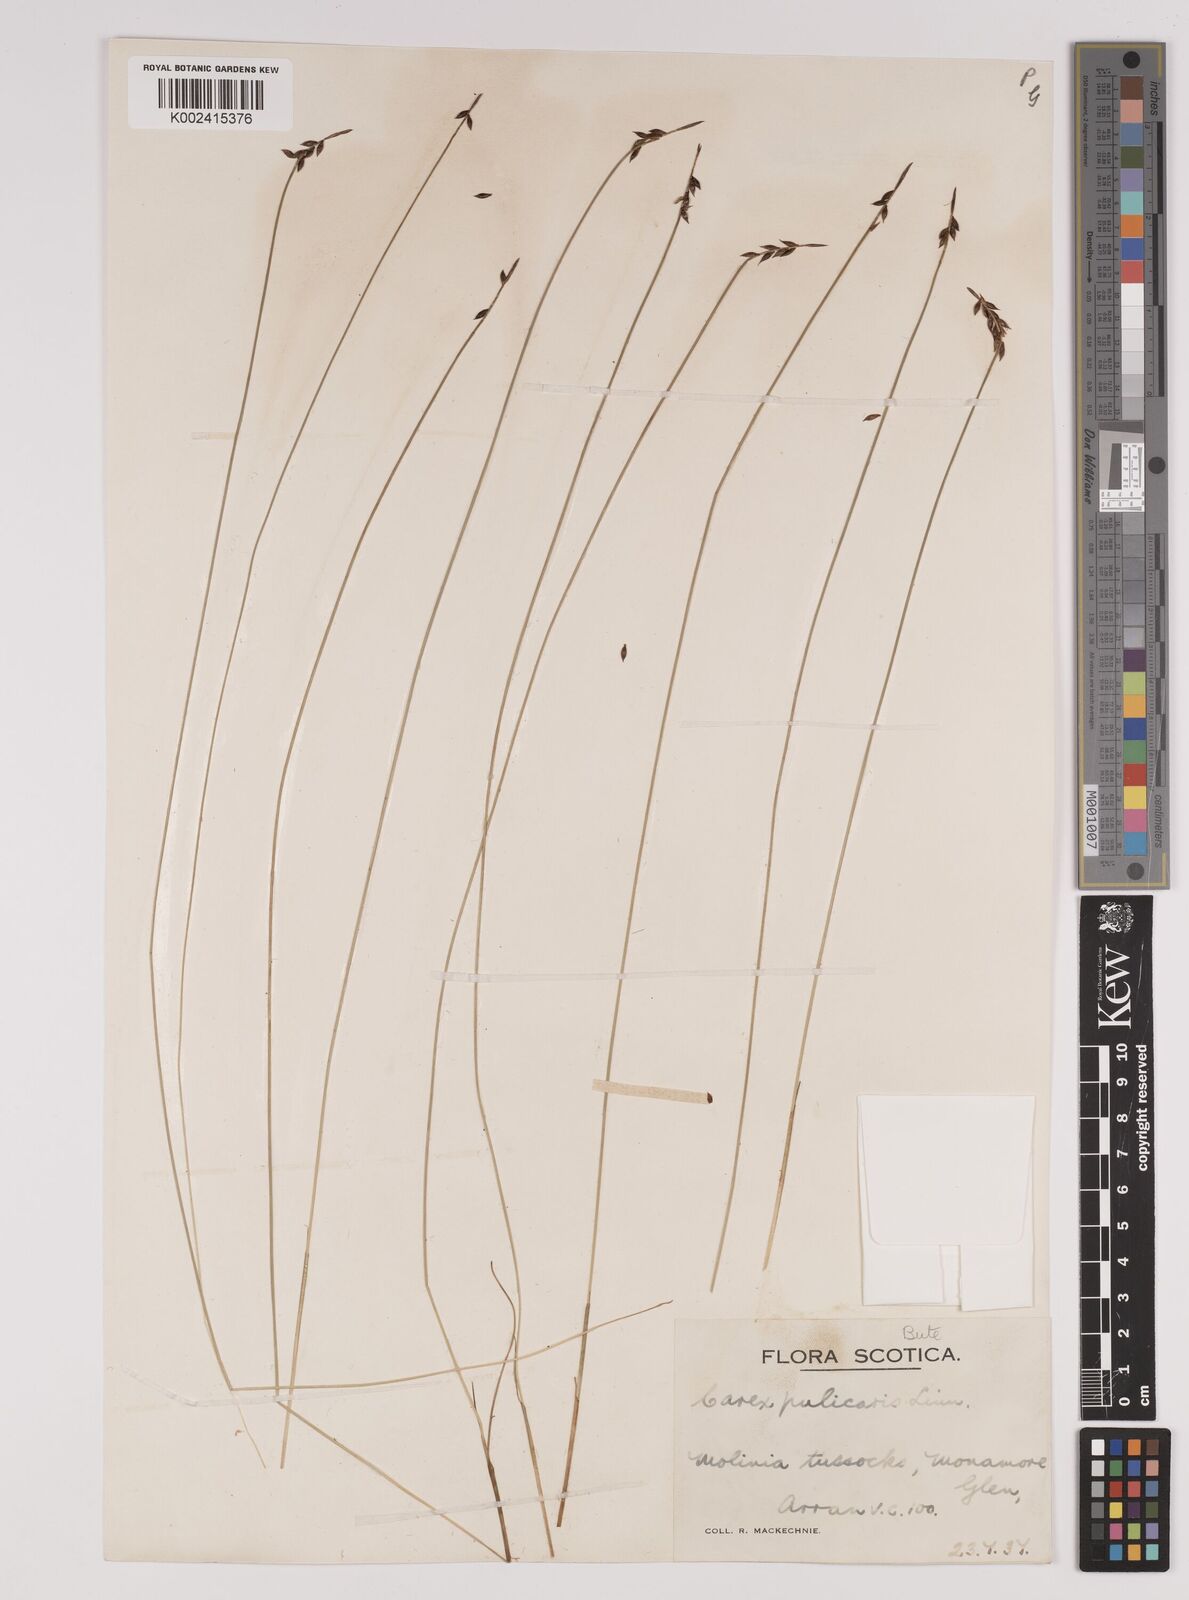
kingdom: Plantae
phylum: Tracheophyta
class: Liliopsida
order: Poales
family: Cyperaceae
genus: Carex
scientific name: Carex pulicaris
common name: Flea sedge
